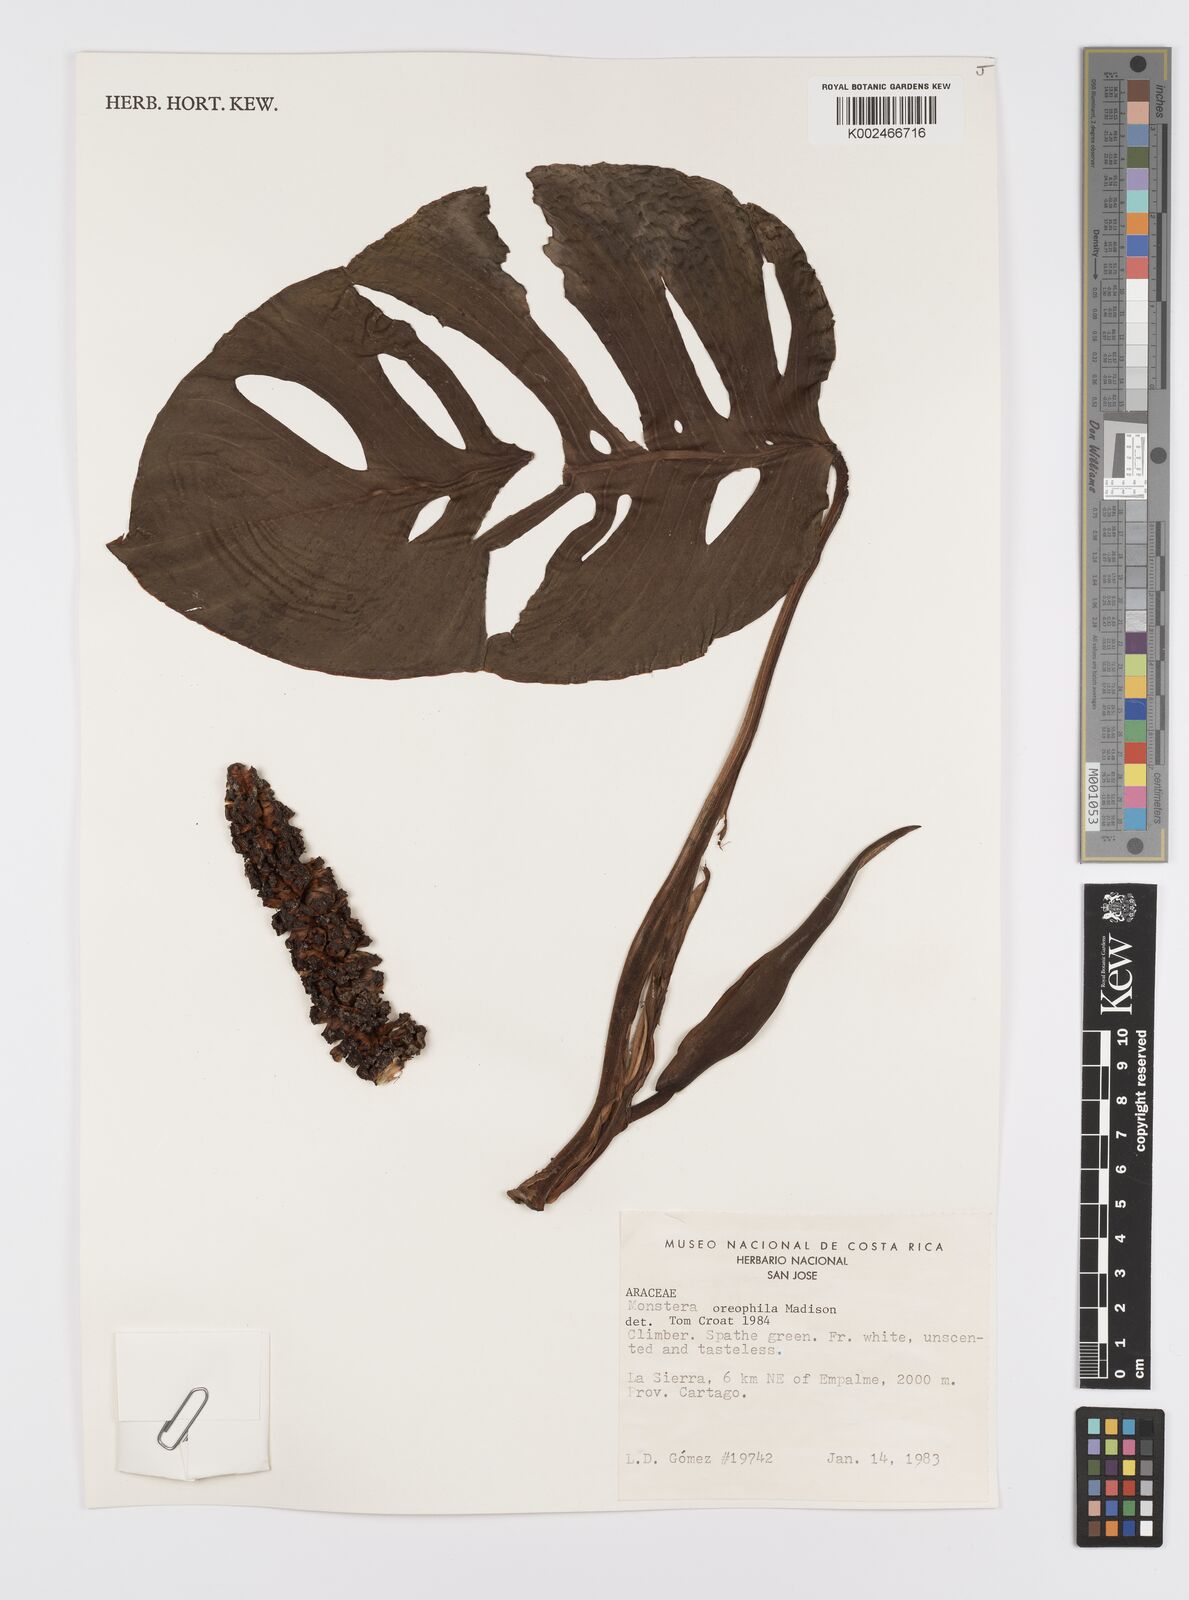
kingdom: Plantae
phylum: Tracheophyta
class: Liliopsida
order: Alismatales
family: Araceae
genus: Monstera
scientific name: Monstera oreophila
